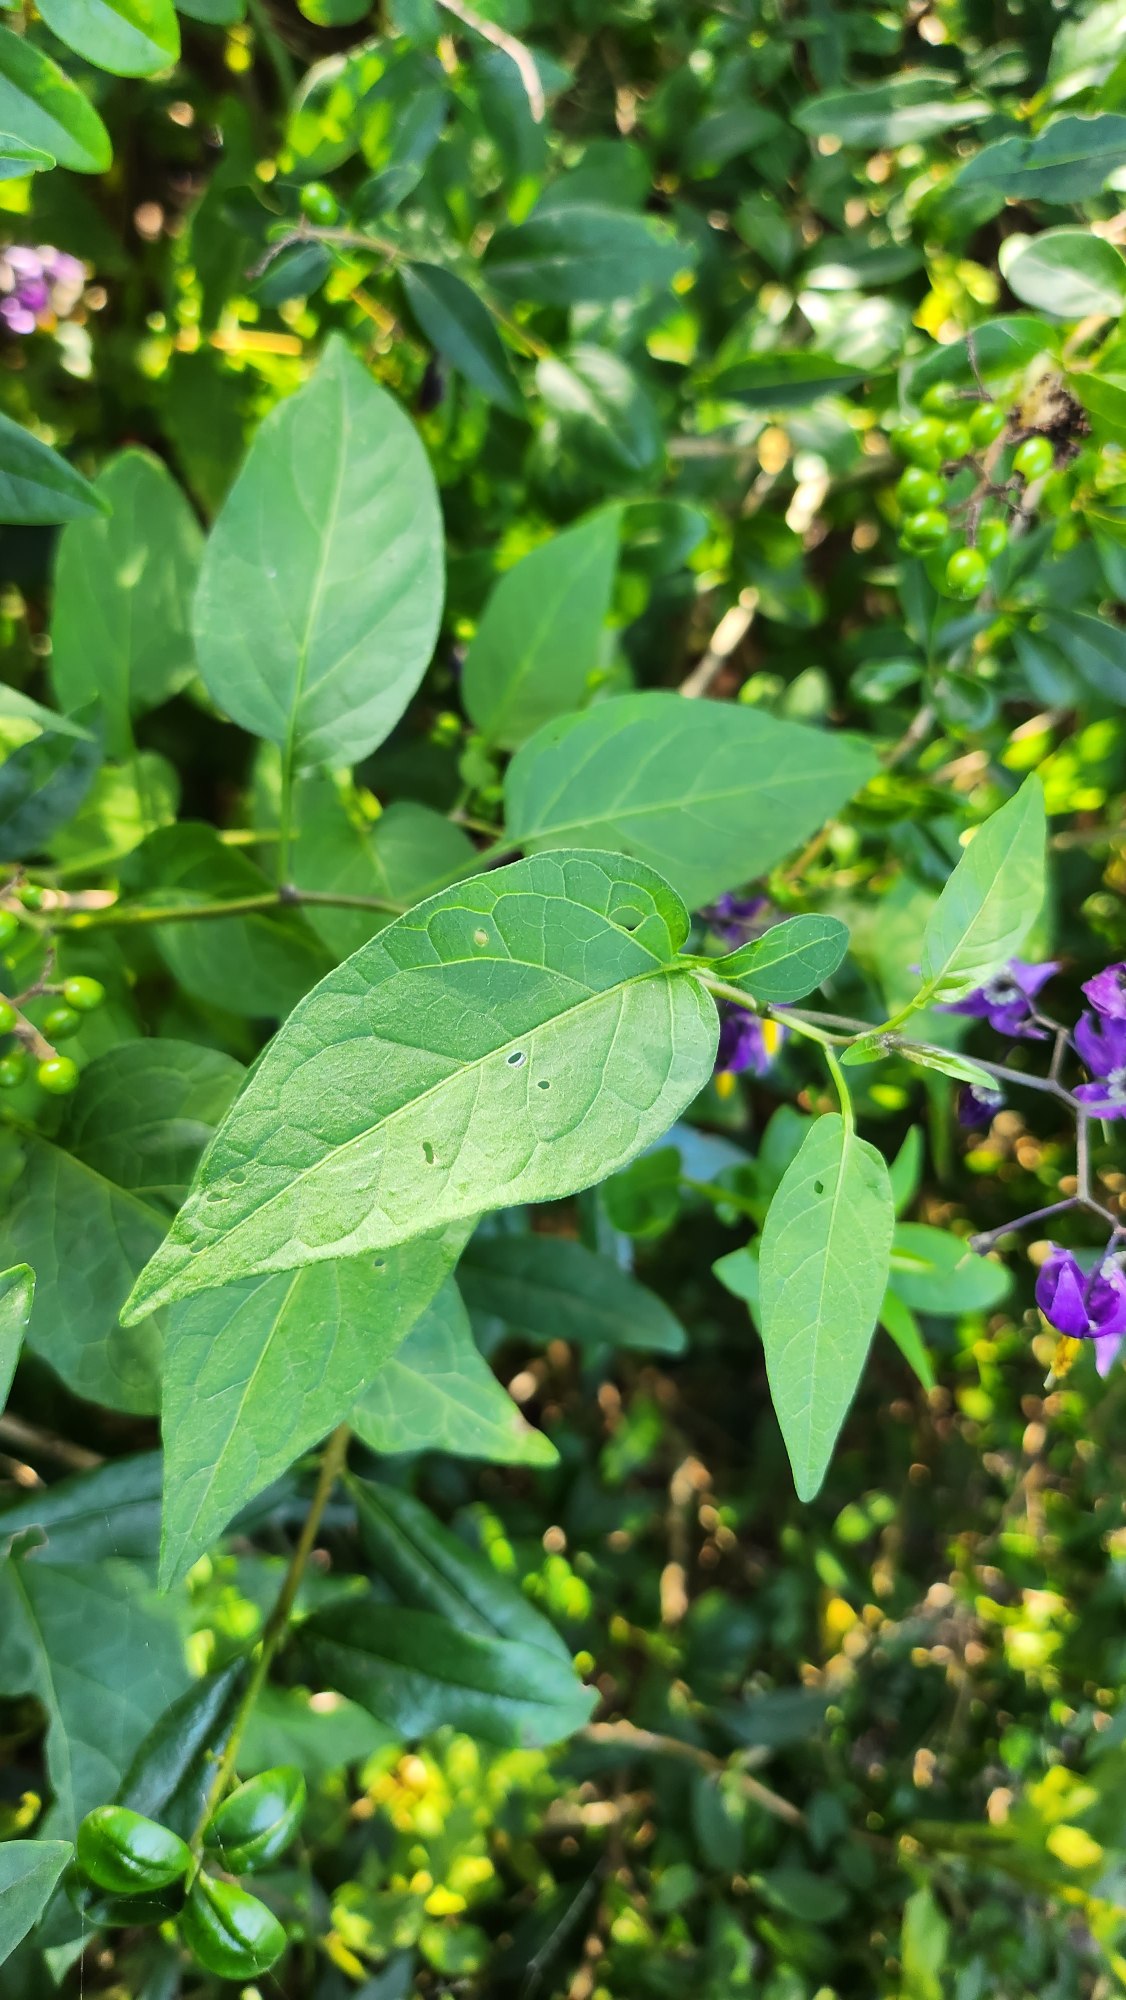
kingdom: Plantae
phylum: Tracheophyta
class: Magnoliopsida
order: Solanales
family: Solanaceae
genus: Solanum
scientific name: Solanum dulcamara
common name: Bittersød natskygge
